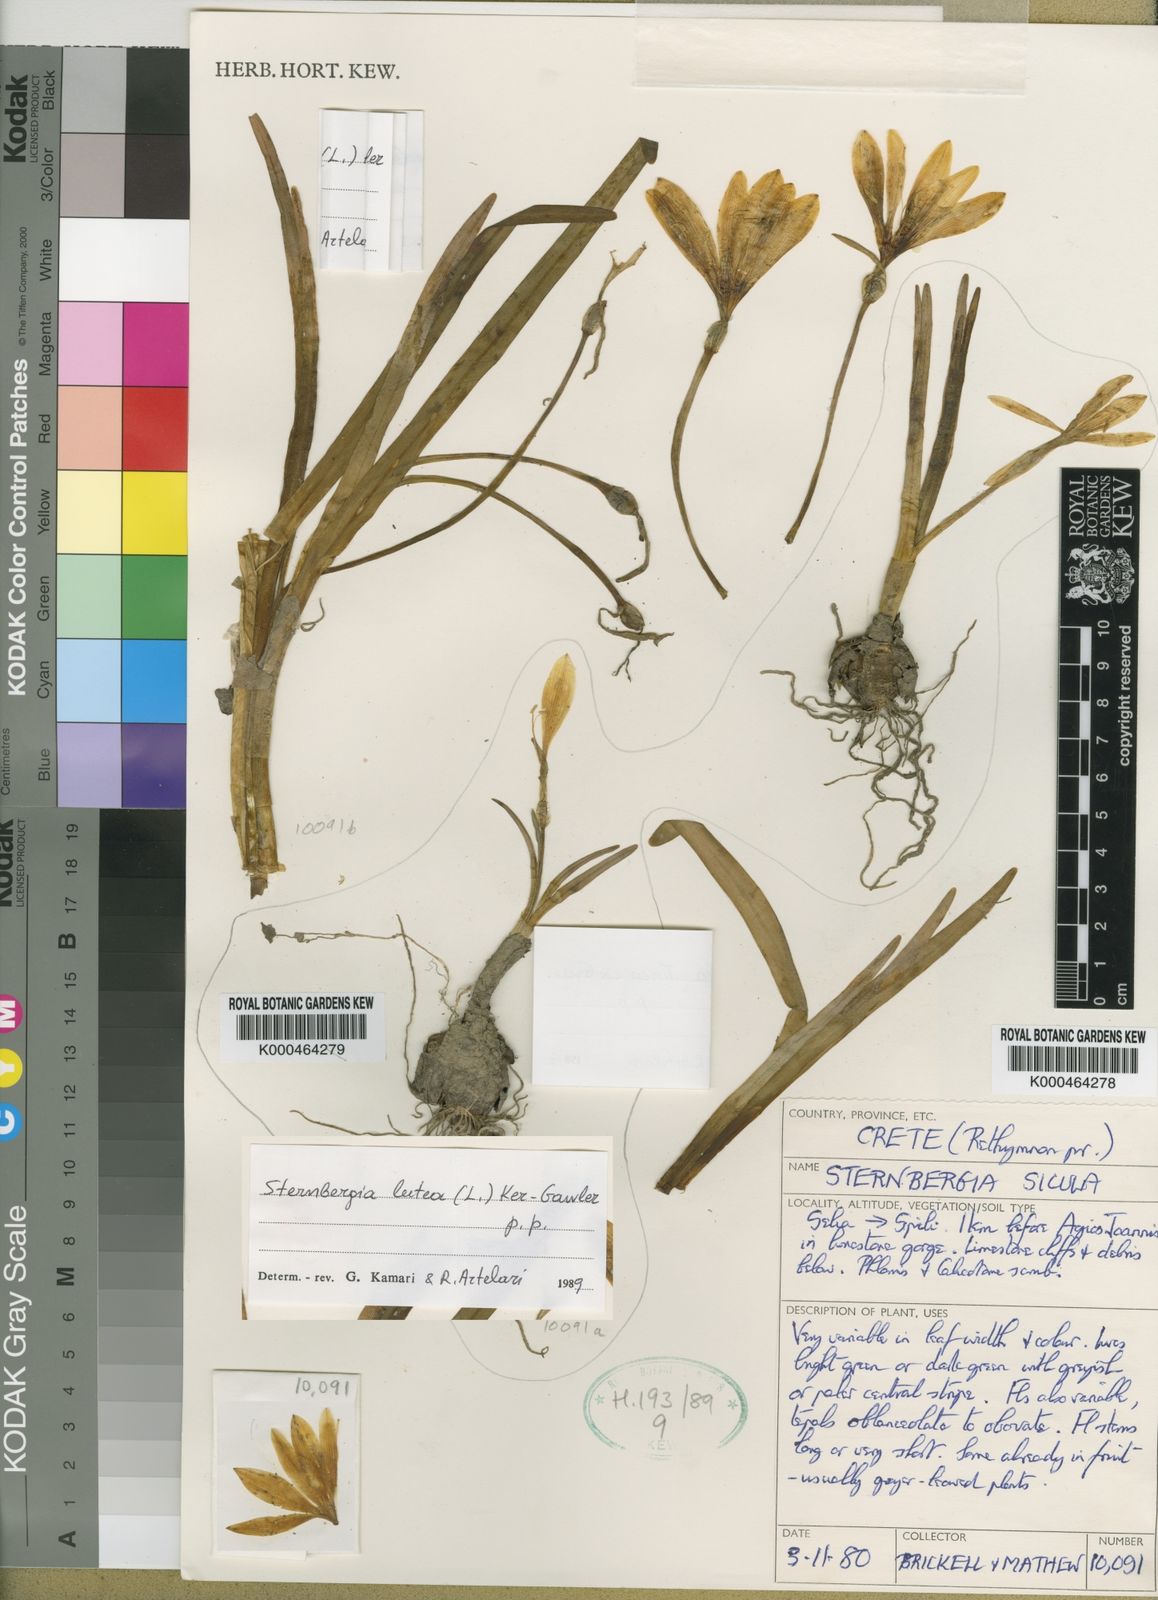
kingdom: Plantae
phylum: Tracheophyta
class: Liliopsida
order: Asparagales
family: Amaryllidaceae
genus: Sternbergia
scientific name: Sternbergia
